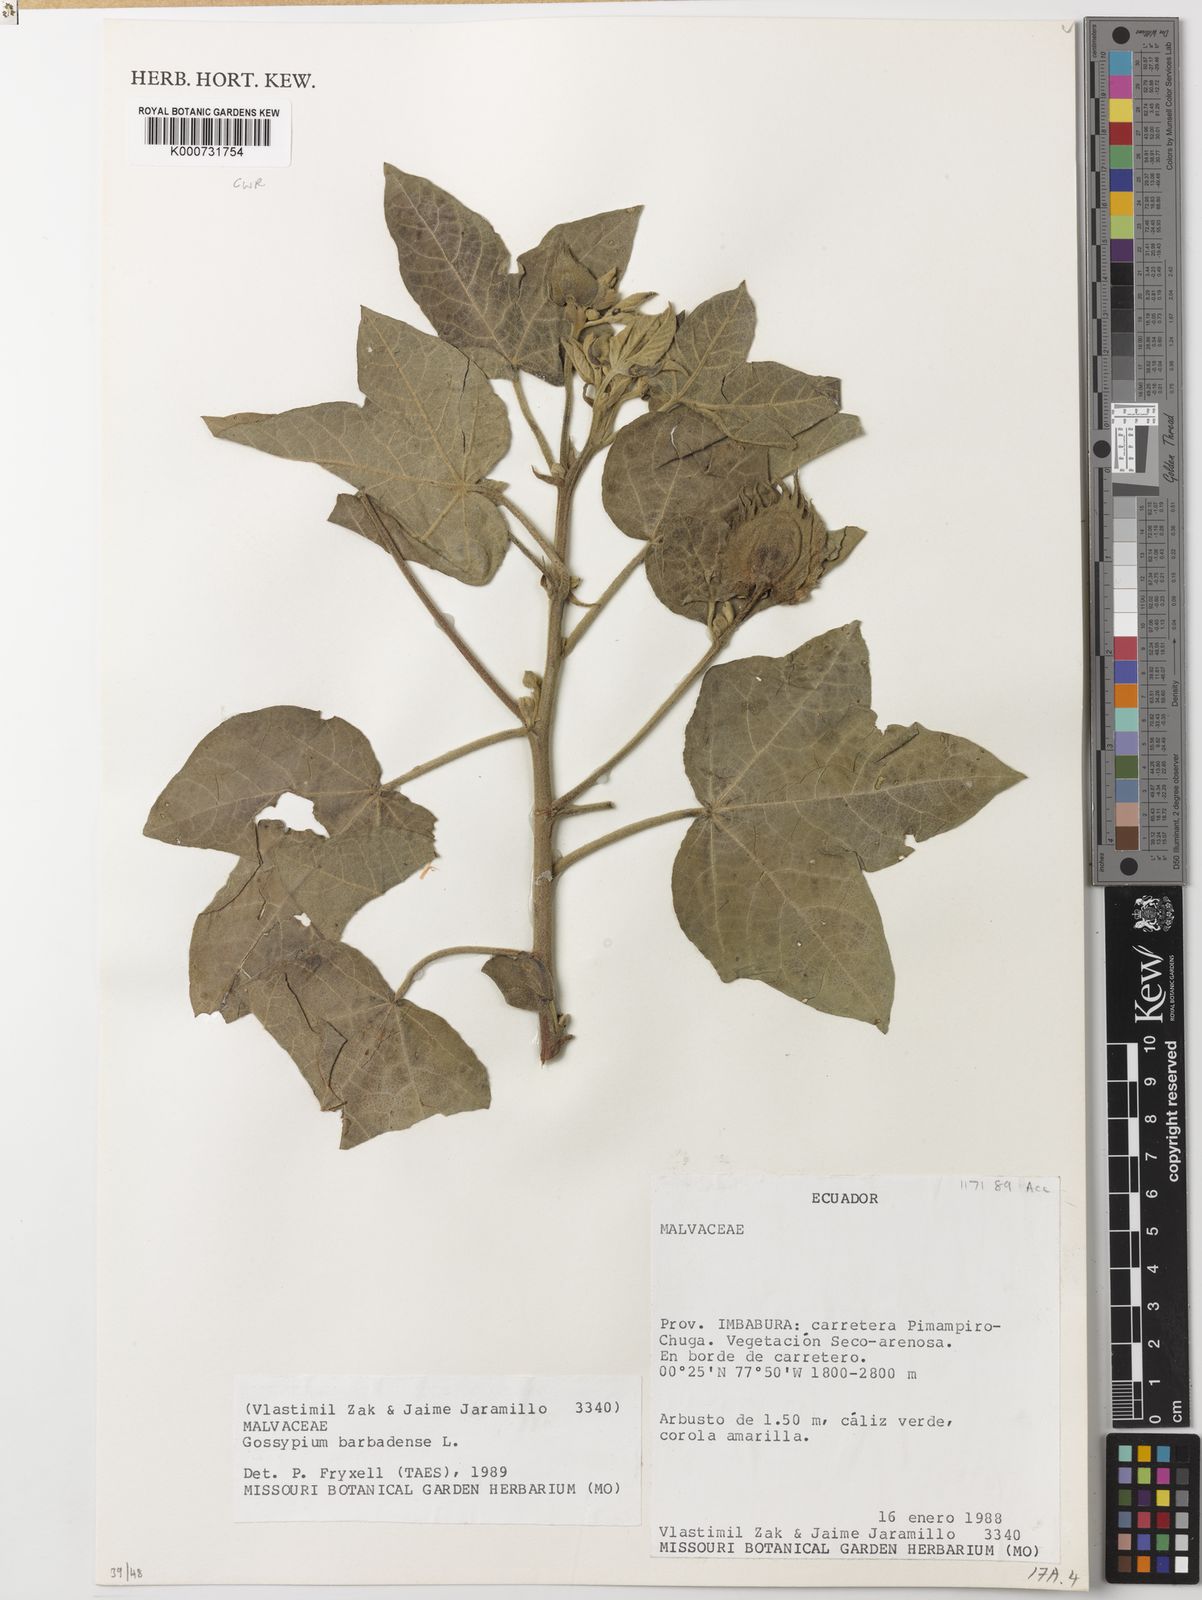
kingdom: Plantae
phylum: Tracheophyta
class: Magnoliopsida
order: Malvales
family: Malvaceae
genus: Gossypium
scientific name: Gossypium barbadense
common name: Creole cotton
